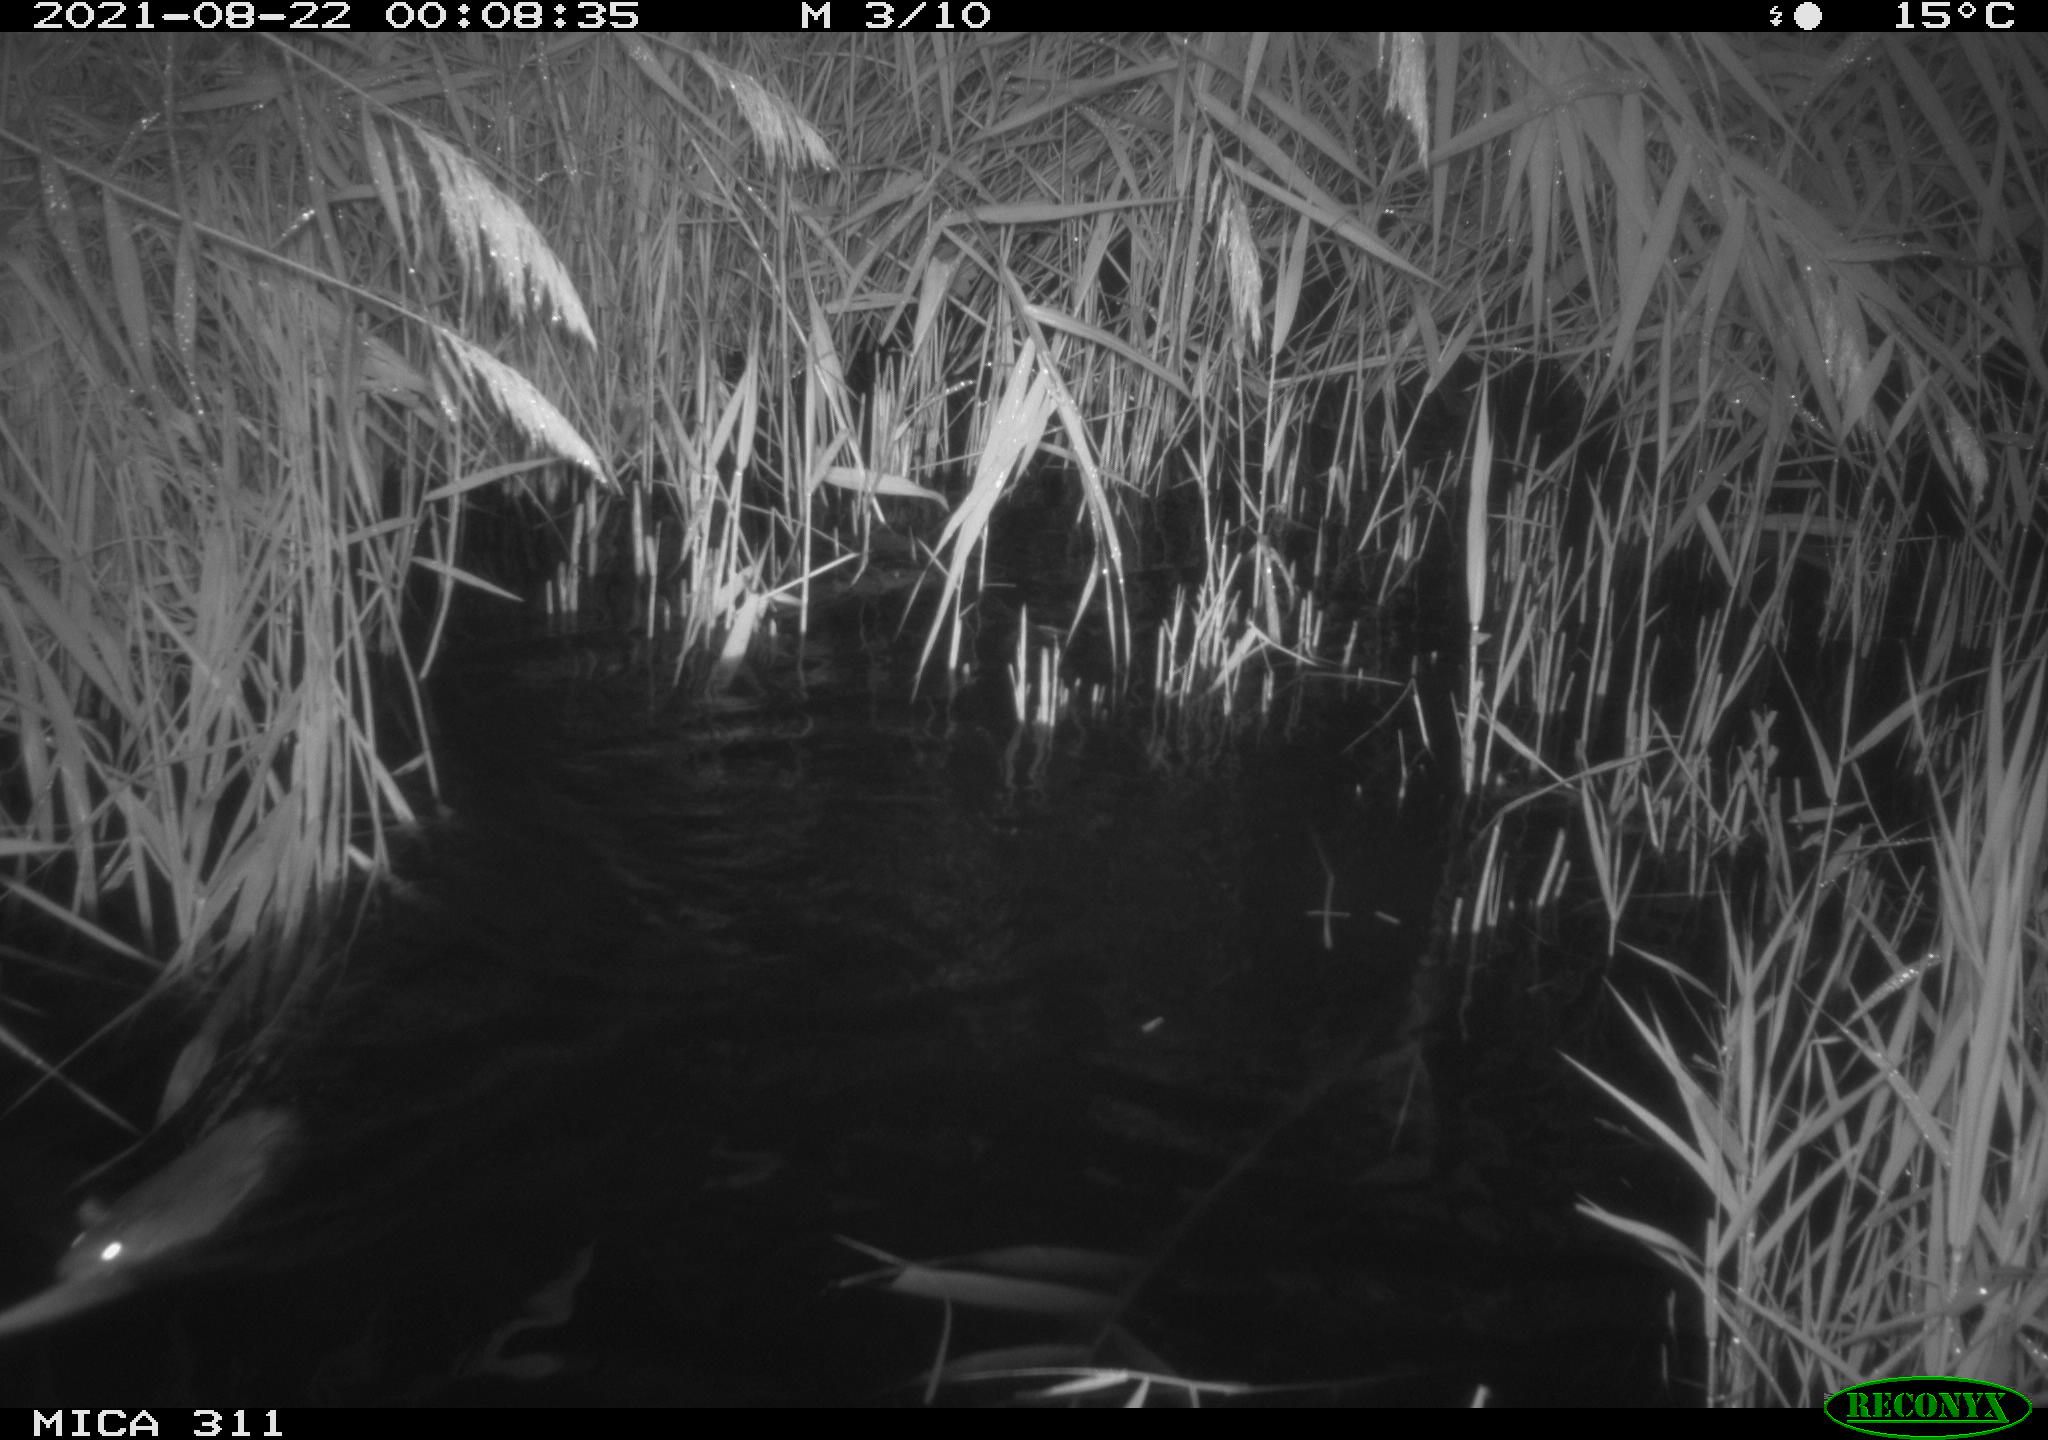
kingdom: Animalia
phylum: Chordata
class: Mammalia
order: Rodentia
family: Muridae
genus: Rattus
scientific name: Rattus norvegicus
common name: Brown rat
